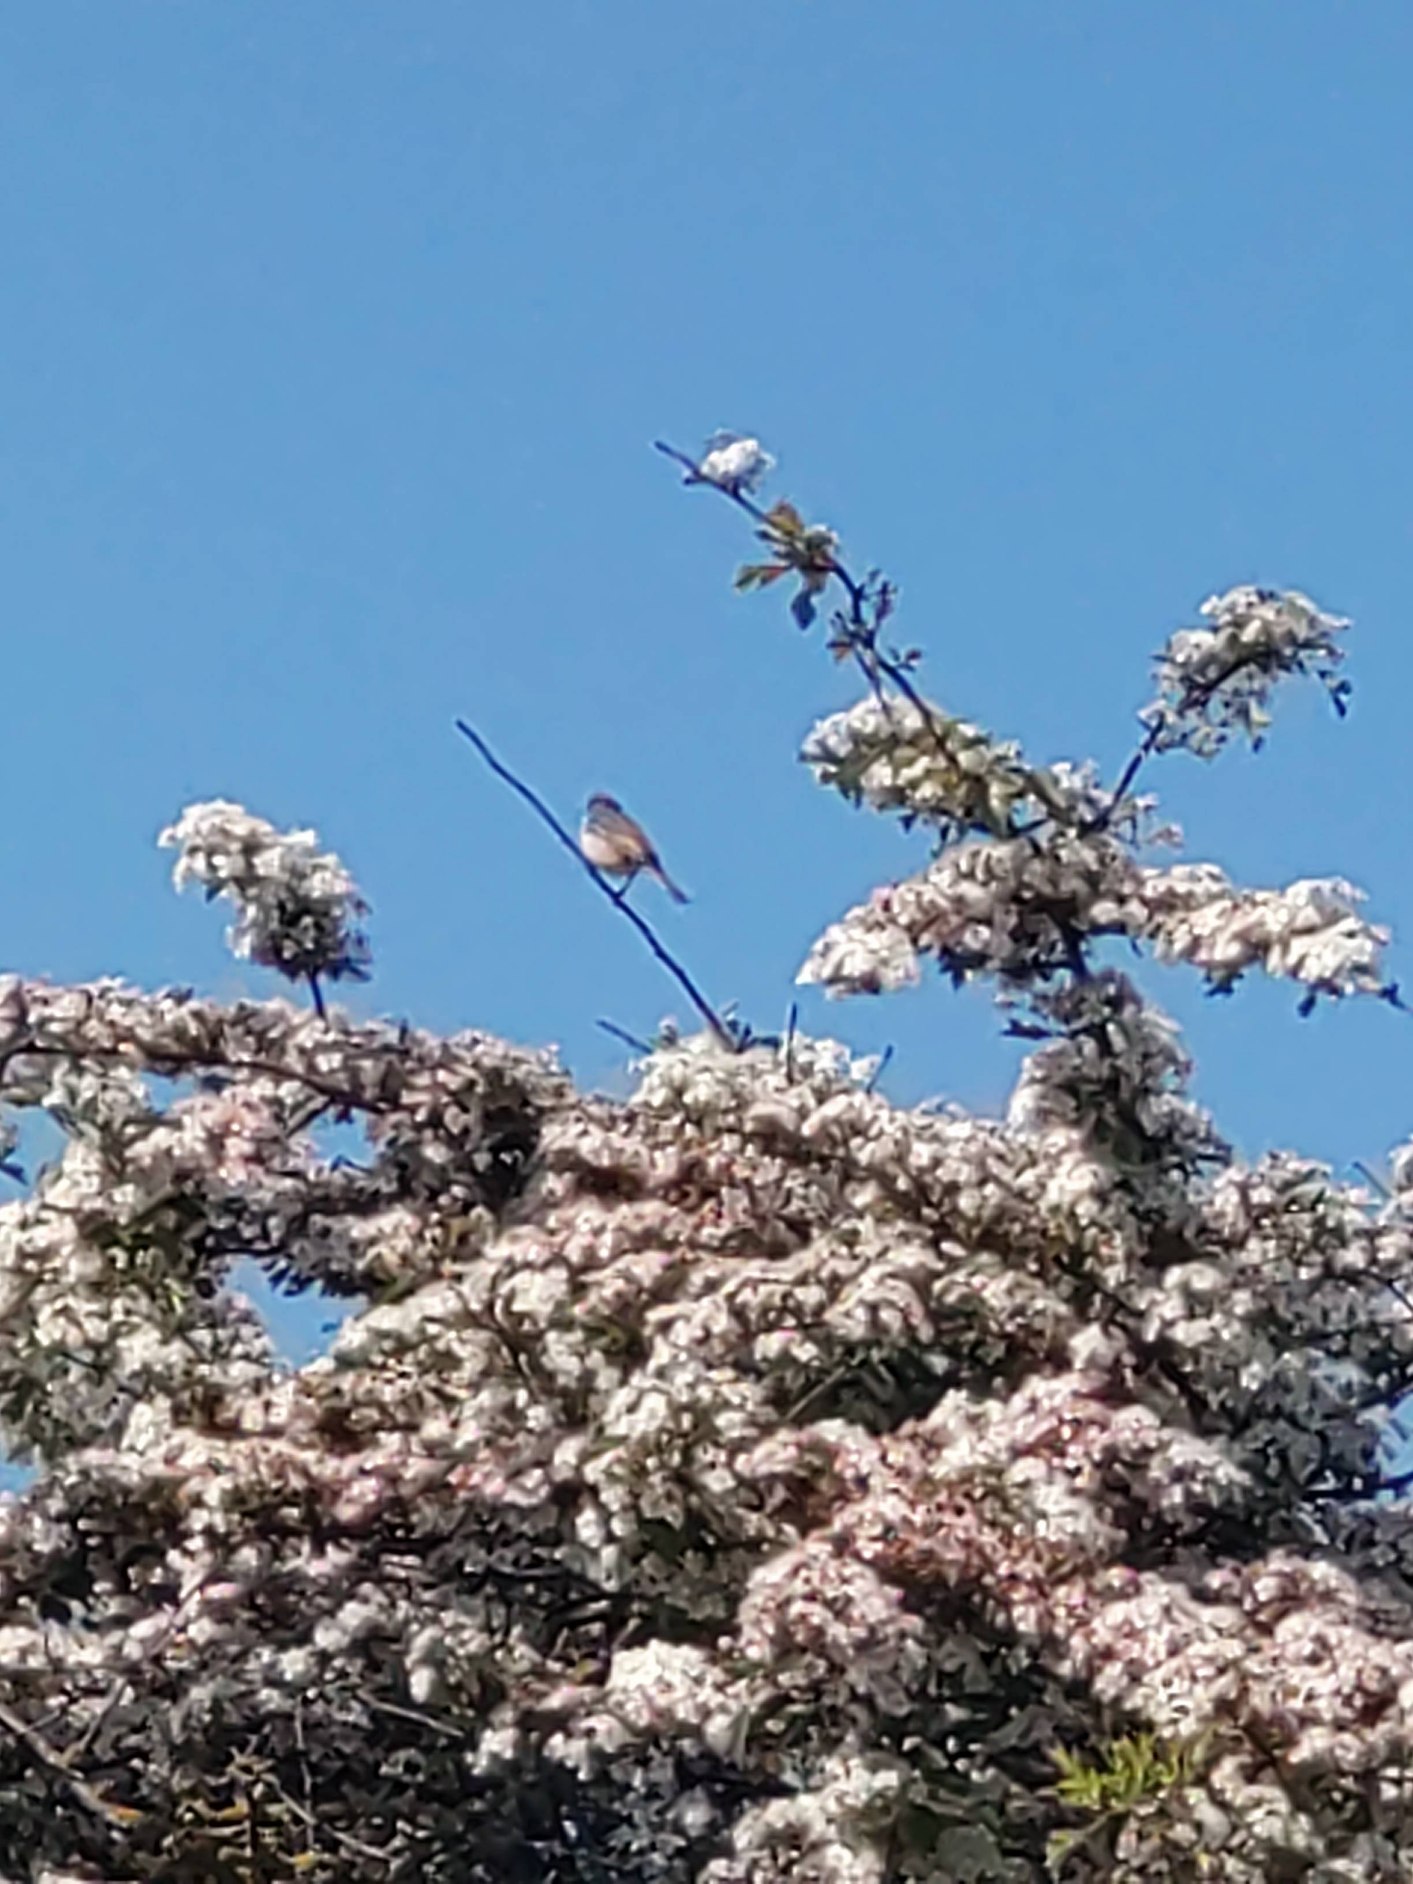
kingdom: Animalia
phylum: Chordata
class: Aves
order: Passeriformes
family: Sylviidae
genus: Sylvia
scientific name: Sylvia communis
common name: Tornsanger
